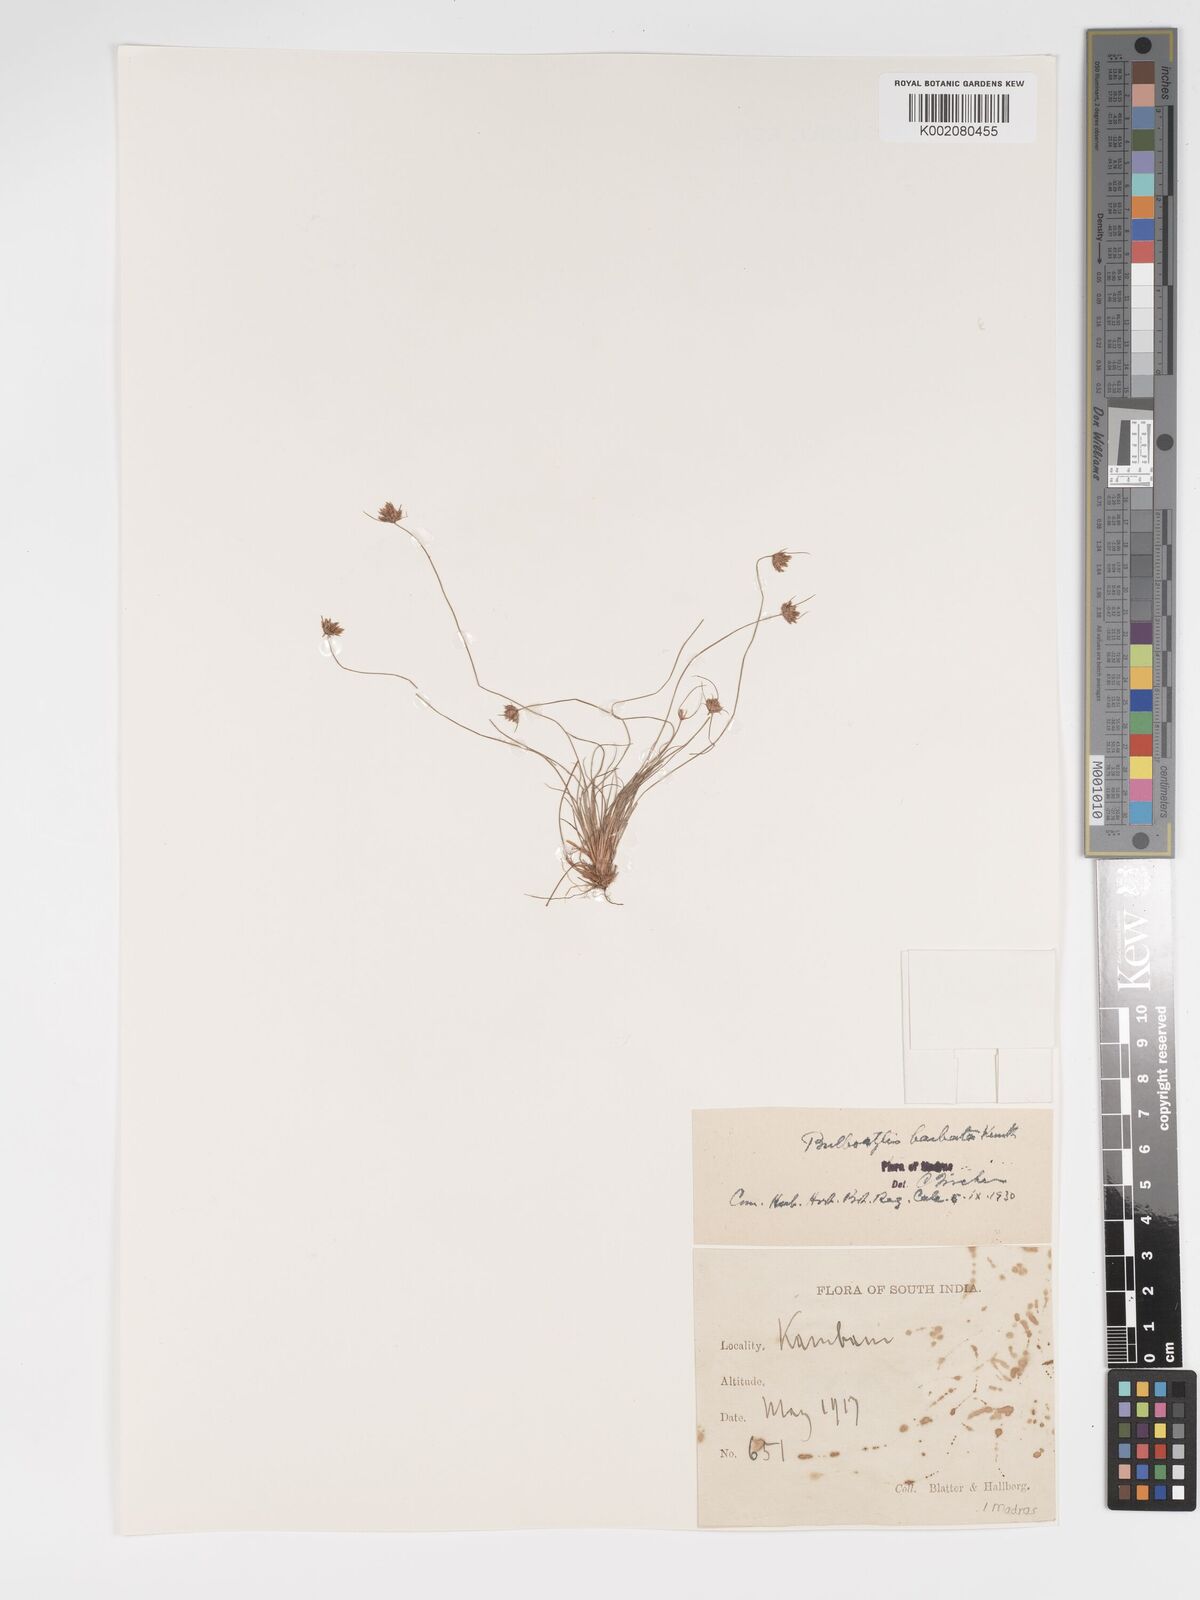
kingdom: Plantae
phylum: Tracheophyta
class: Liliopsida
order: Poales
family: Cyperaceae
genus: Bulbostylis
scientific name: Bulbostylis barbata
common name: Watergrass
